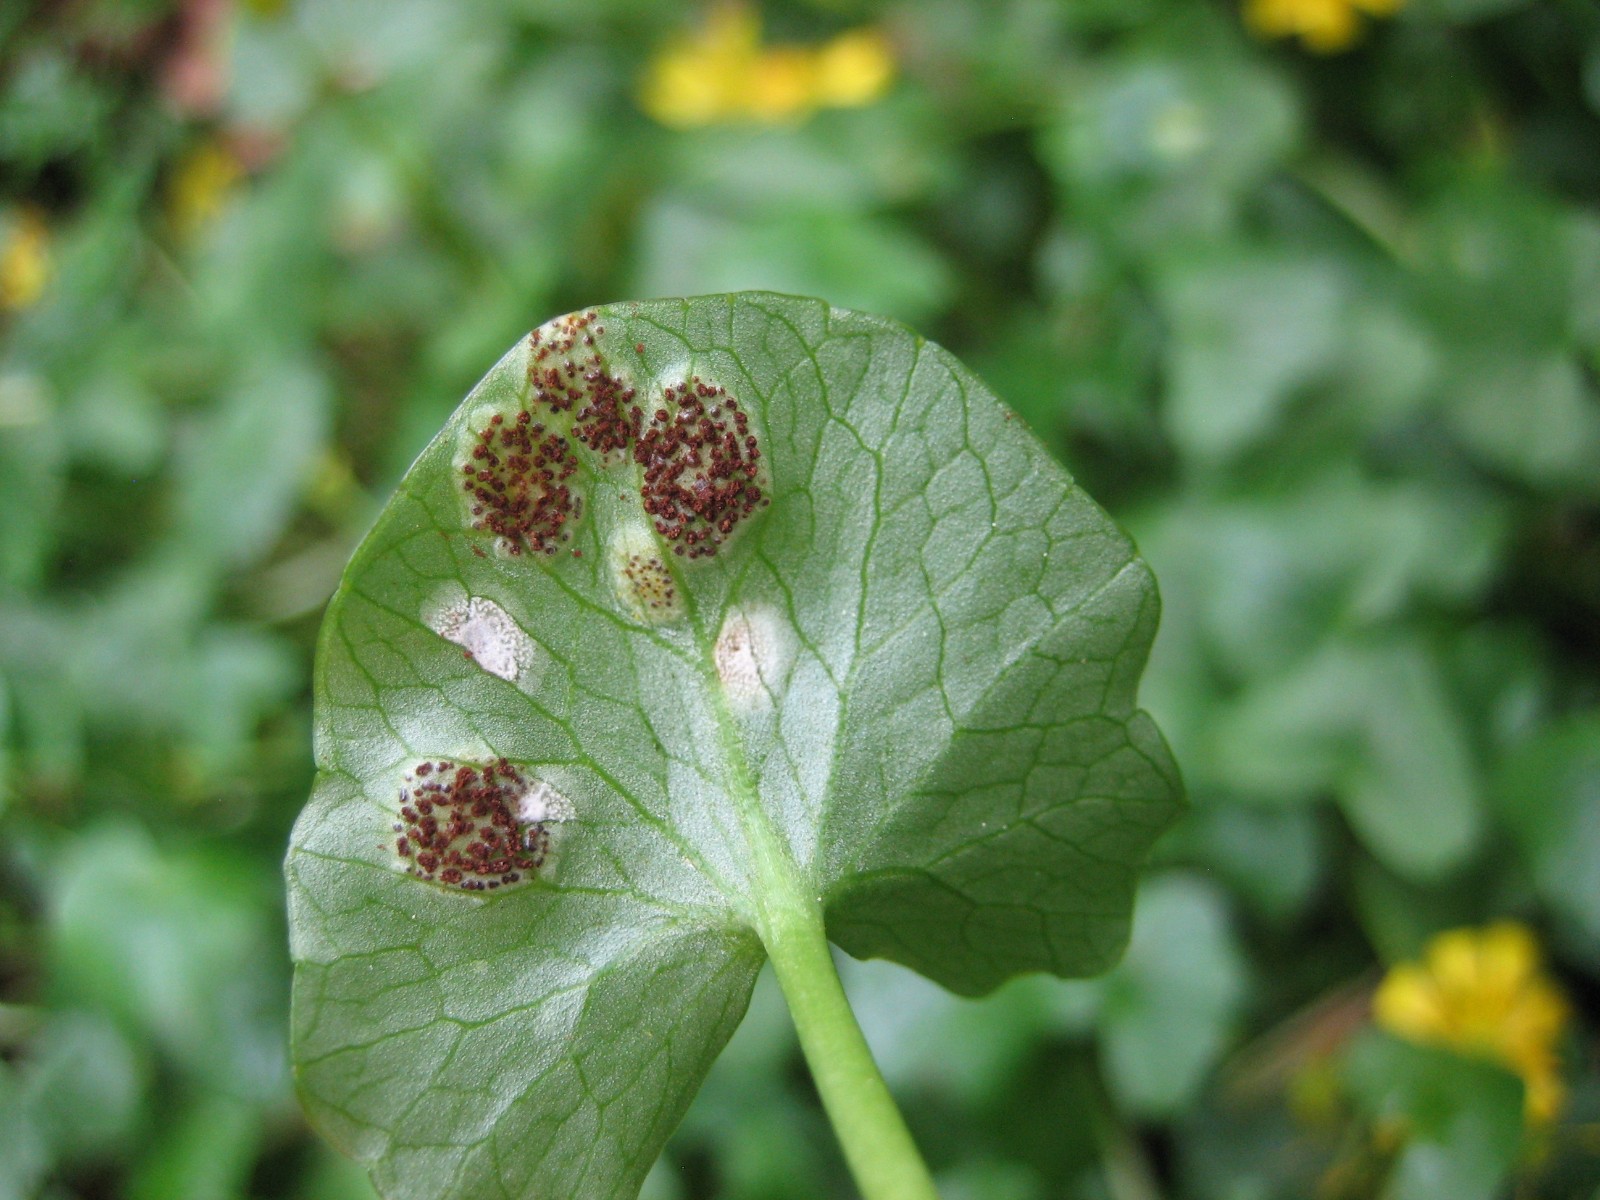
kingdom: Fungi
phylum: Basidiomycota
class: Pucciniomycetes
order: Pucciniales
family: Pucciniaceae
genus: Uromyces
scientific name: Uromyces ficariae
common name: vorterod-encellerust
